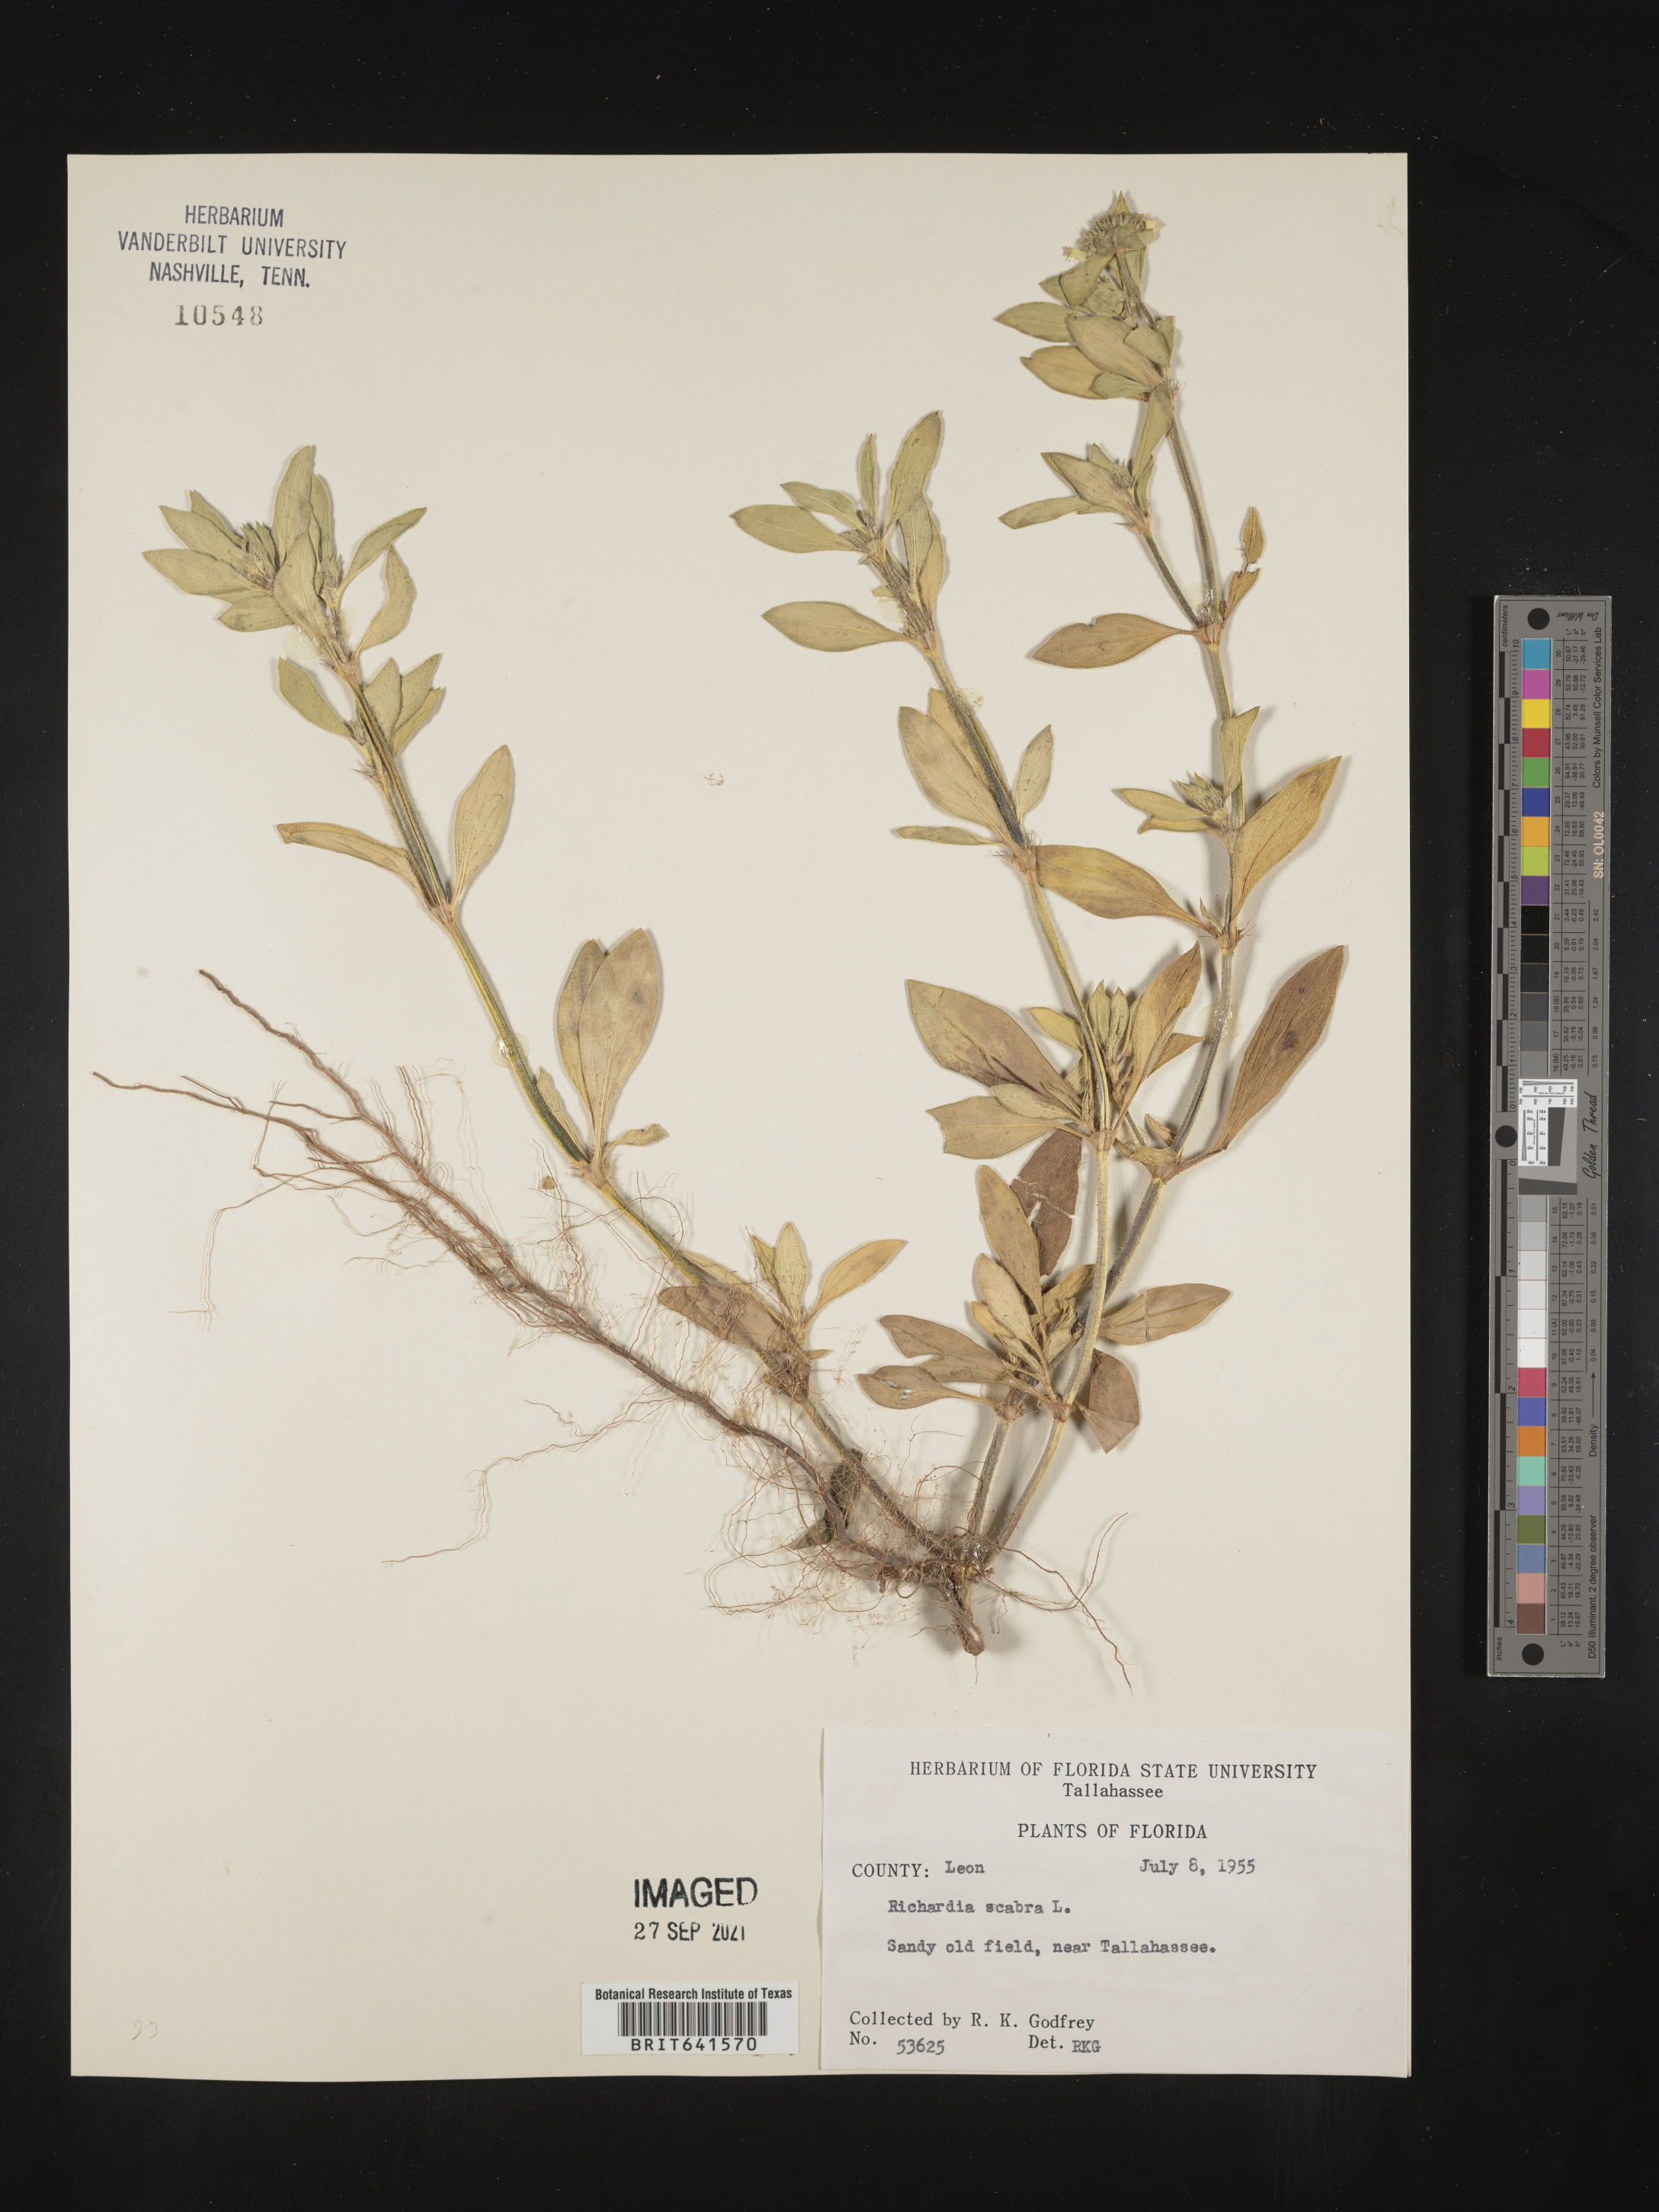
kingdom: Plantae
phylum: Tracheophyta
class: Magnoliopsida
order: Gentianales
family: Rubiaceae
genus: Richardia
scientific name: Richardia scabra
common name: Rough mexican clover
